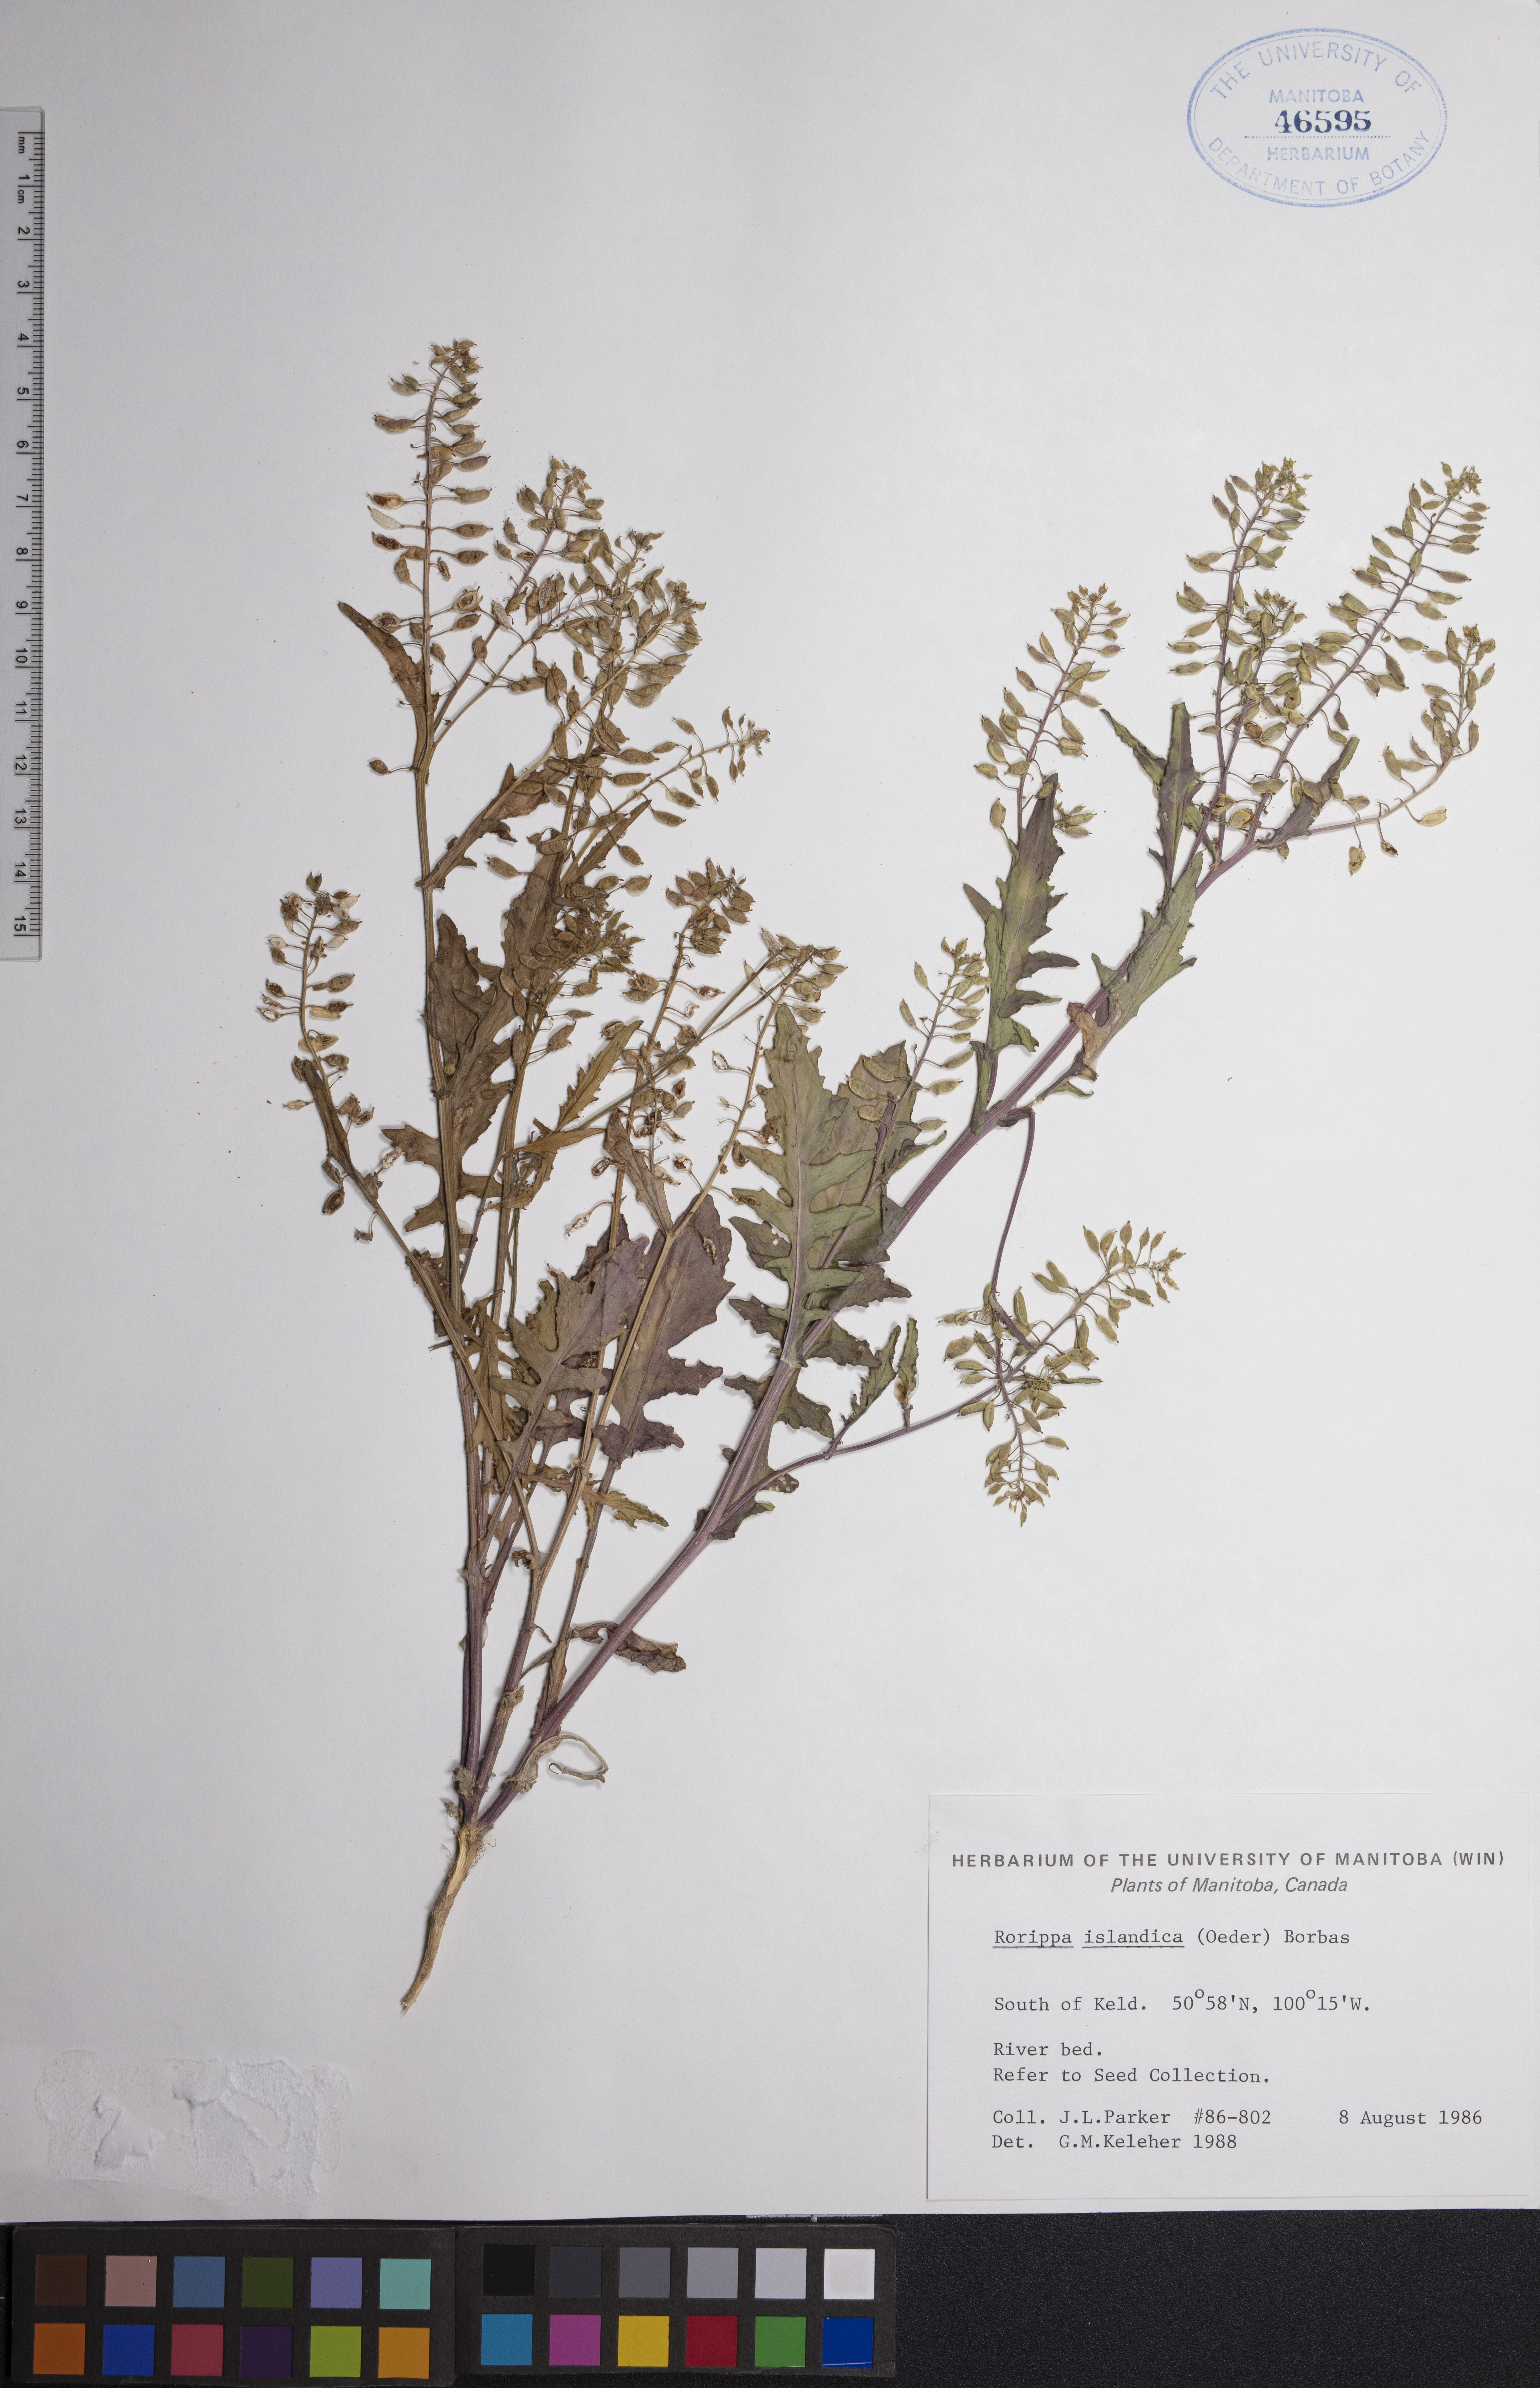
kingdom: Plantae
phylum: Tracheophyta
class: Magnoliopsida
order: Brassicales
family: Brassicaceae
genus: Rorippa
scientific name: Rorippa islandica
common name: Marsh cress
